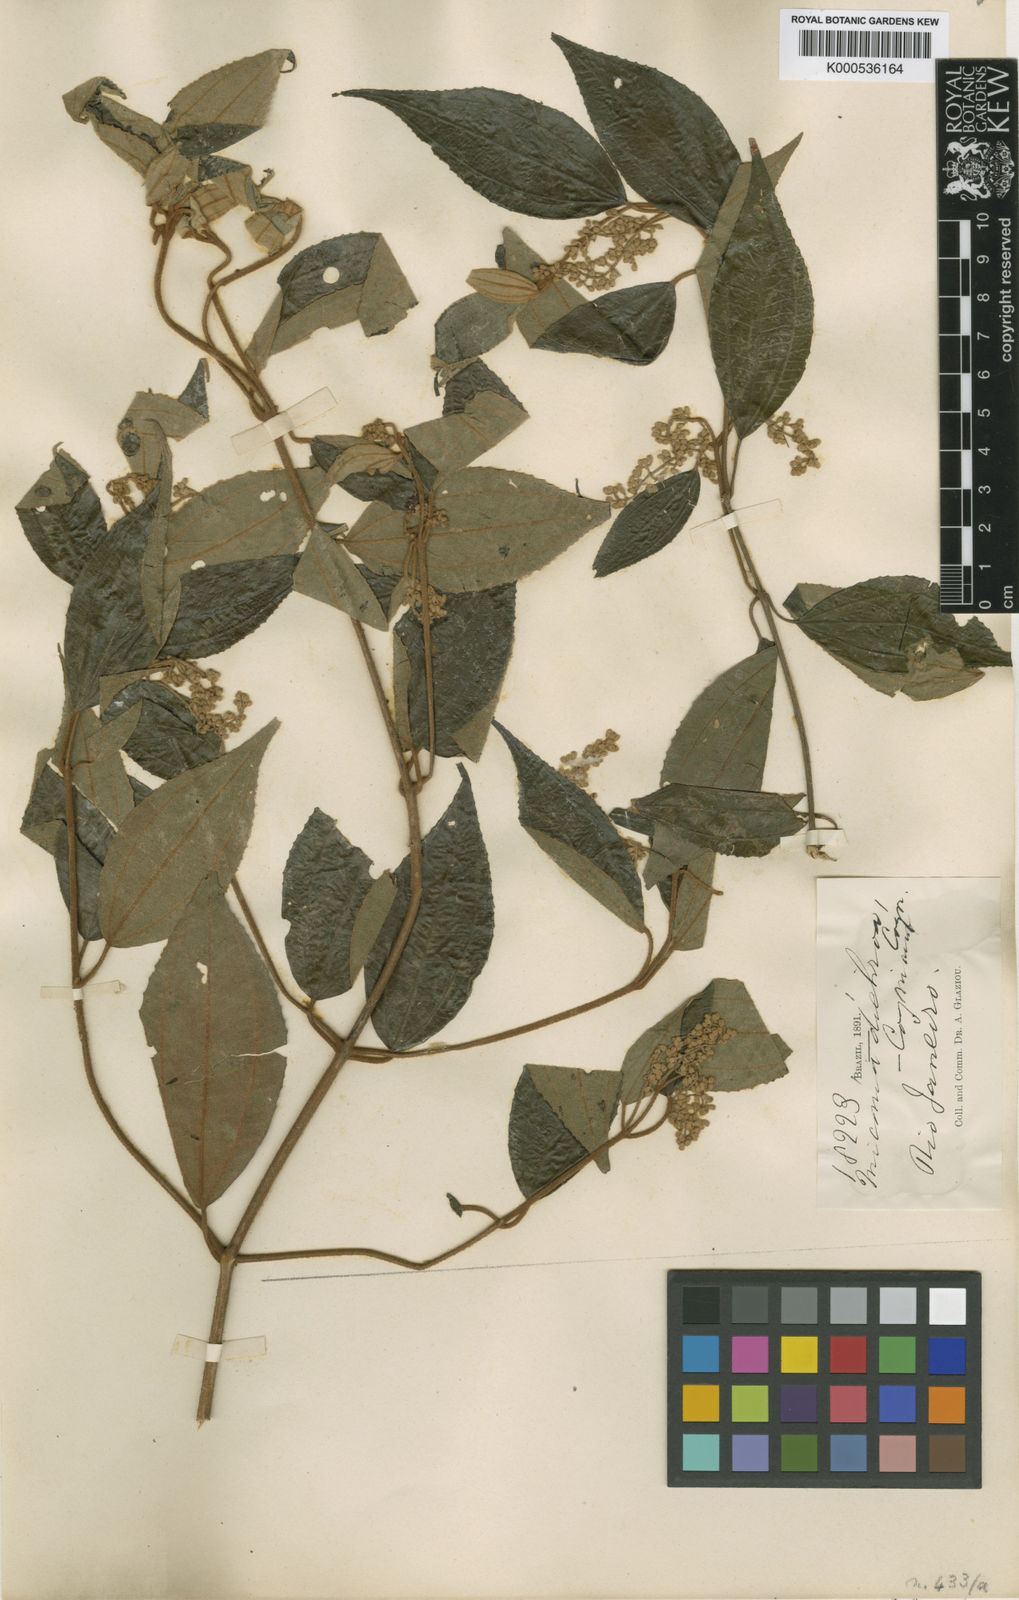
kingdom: Plantae
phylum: Tracheophyta
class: Magnoliopsida
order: Myrtales
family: Melastomataceae
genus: Miconia
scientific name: Miconia dichroa
